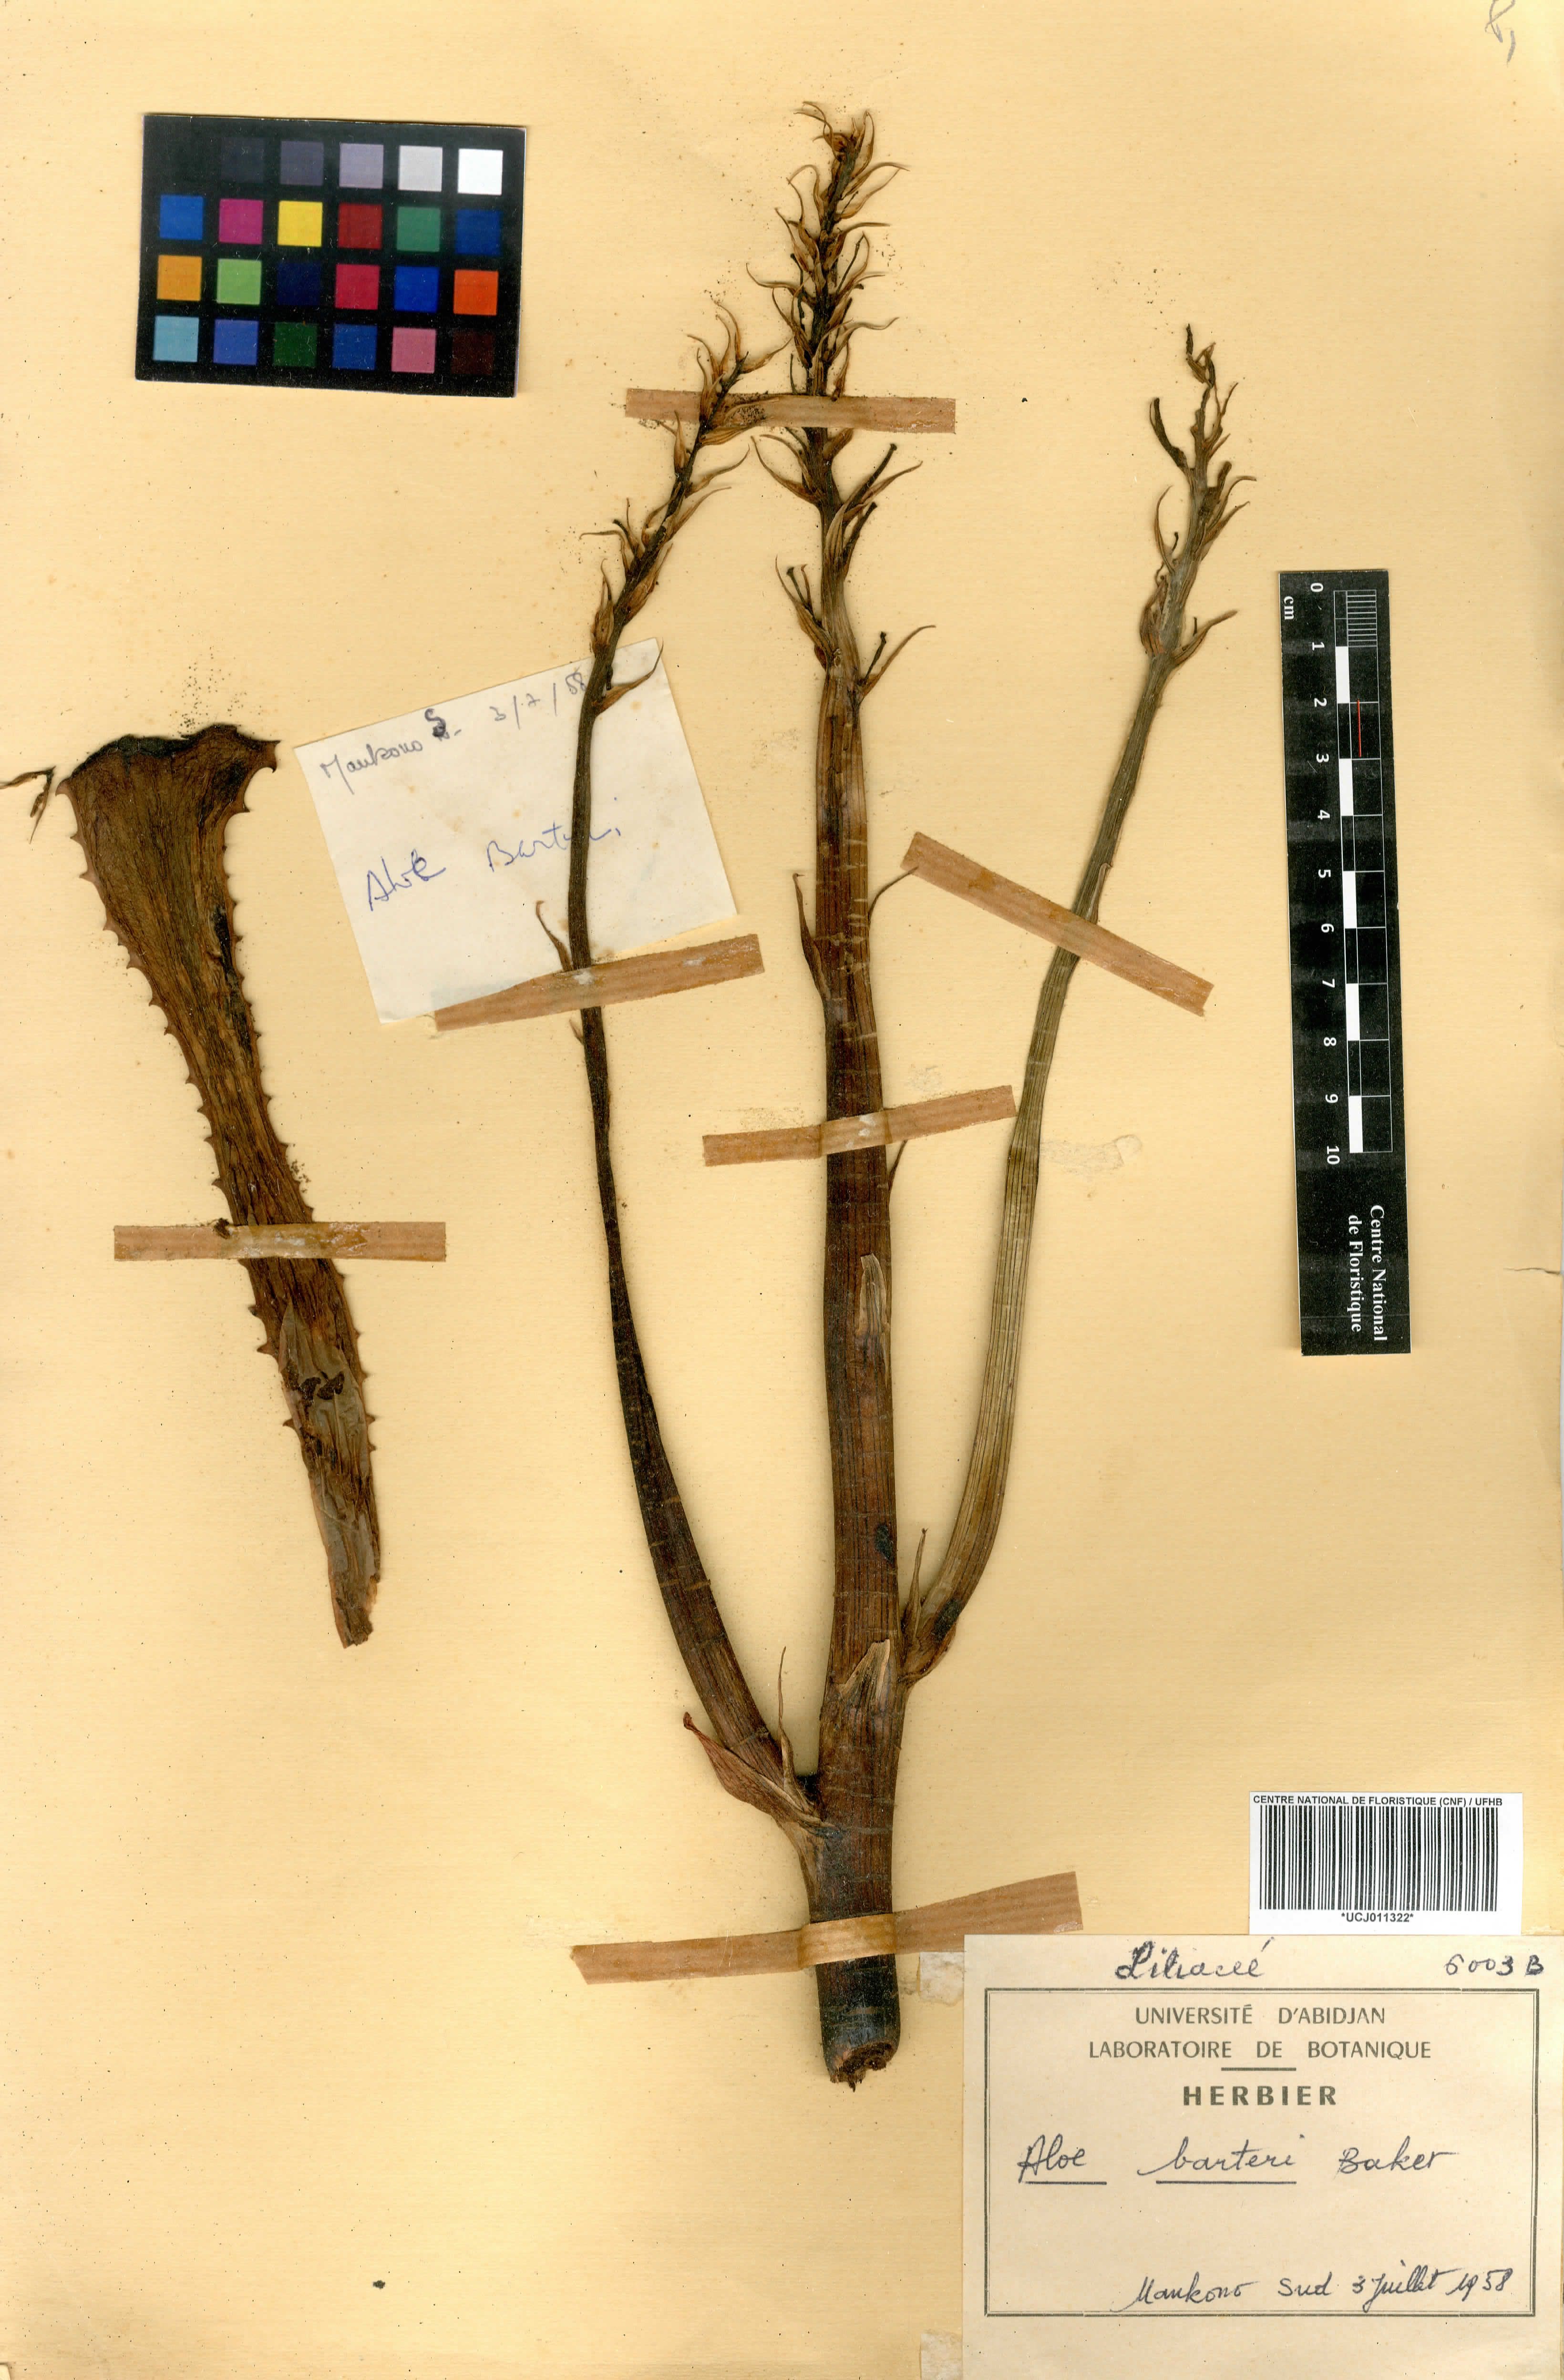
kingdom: Plantae
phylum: Tracheophyta
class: Liliopsida
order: Asparagales
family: Asphodelaceae
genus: Aloe
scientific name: Aloe buettneri
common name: West african aloe
